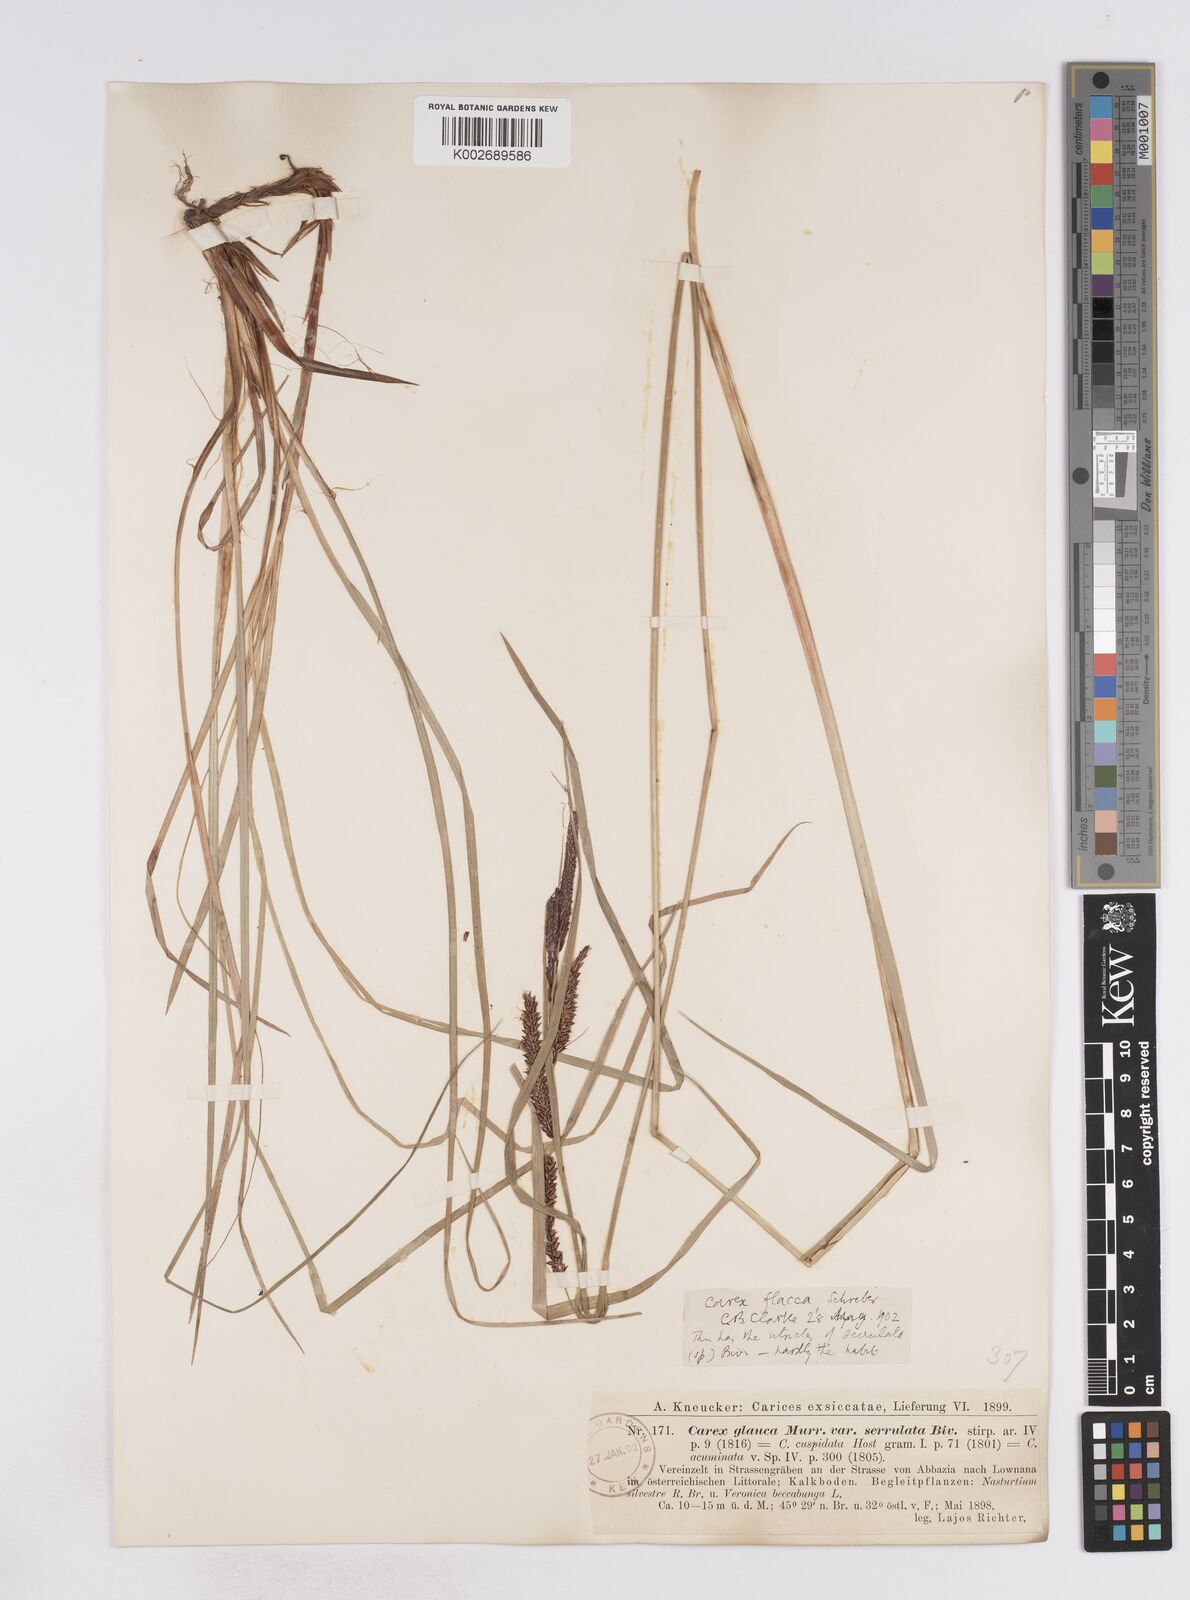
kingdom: Plantae
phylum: Tracheophyta
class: Liliopsida
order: Poales
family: Cyperaceae
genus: Carex
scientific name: Carex flacca
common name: Glaucous sedge
